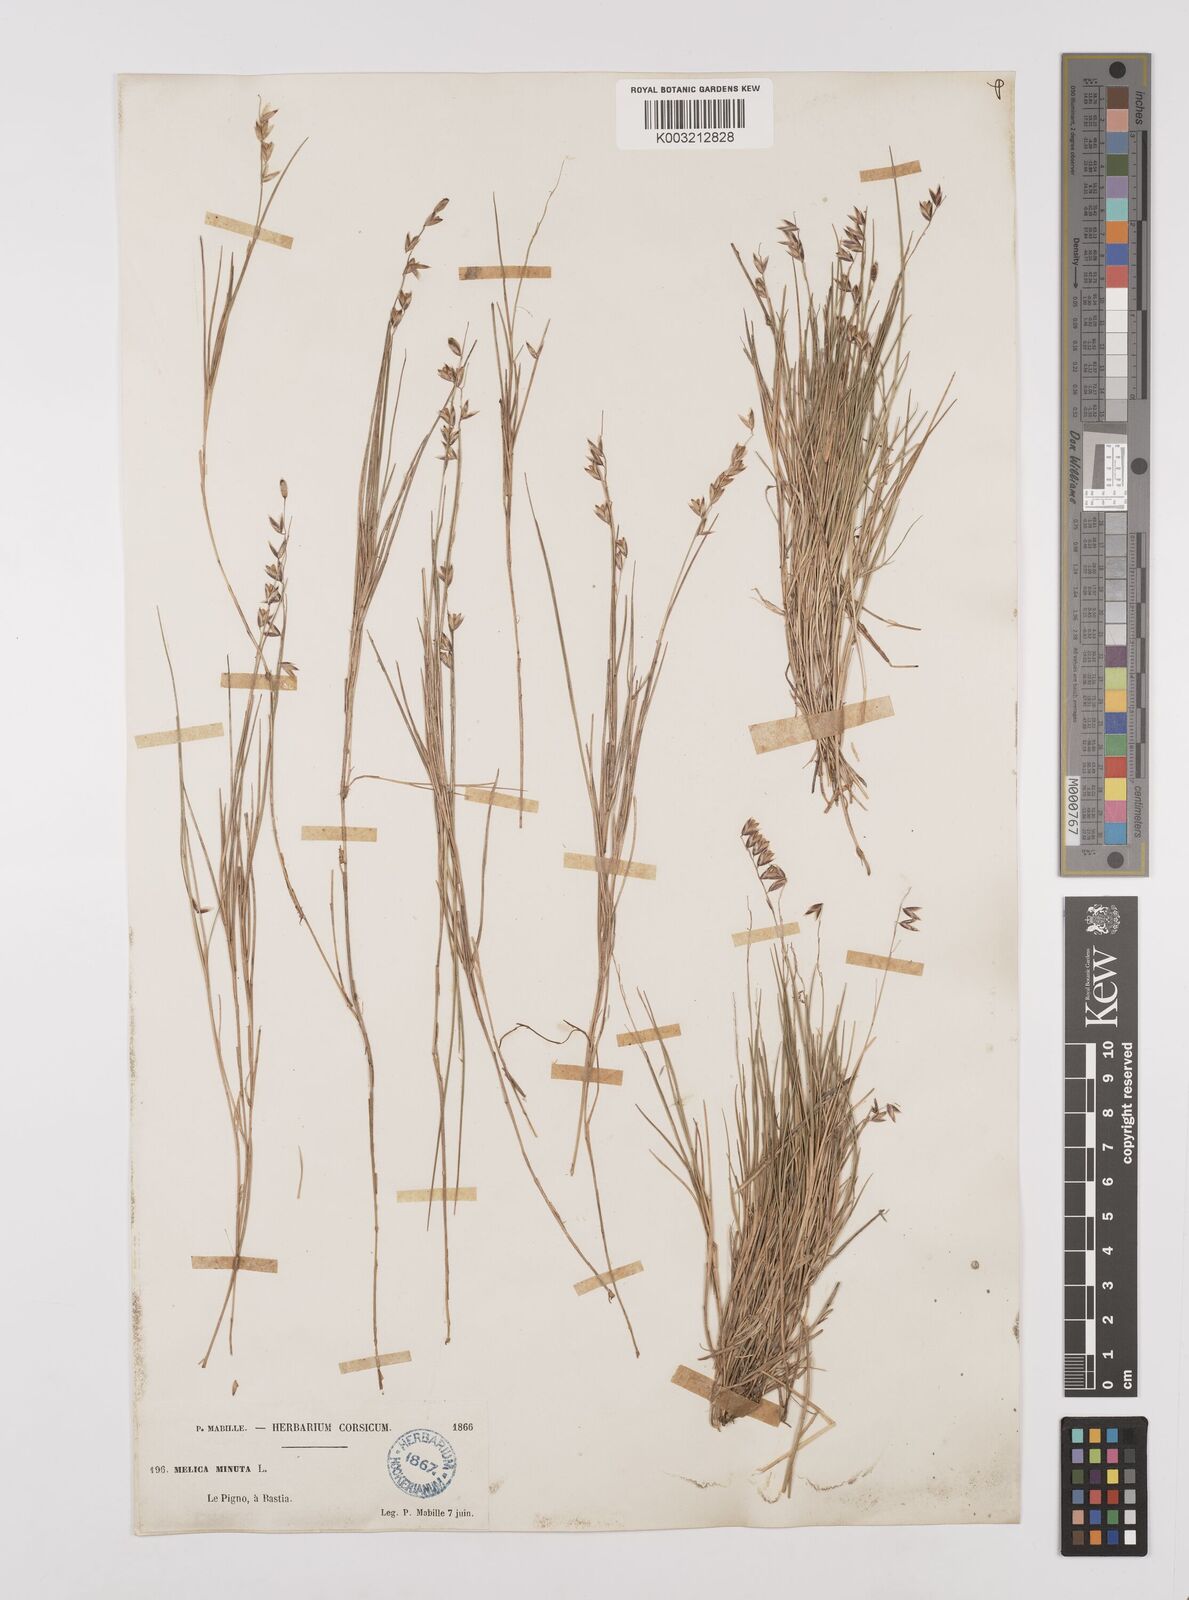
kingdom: Plantae
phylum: Tracheophyta
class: Liliopsida
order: Poales
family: Poaceae
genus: Melica
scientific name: Melica minuta
